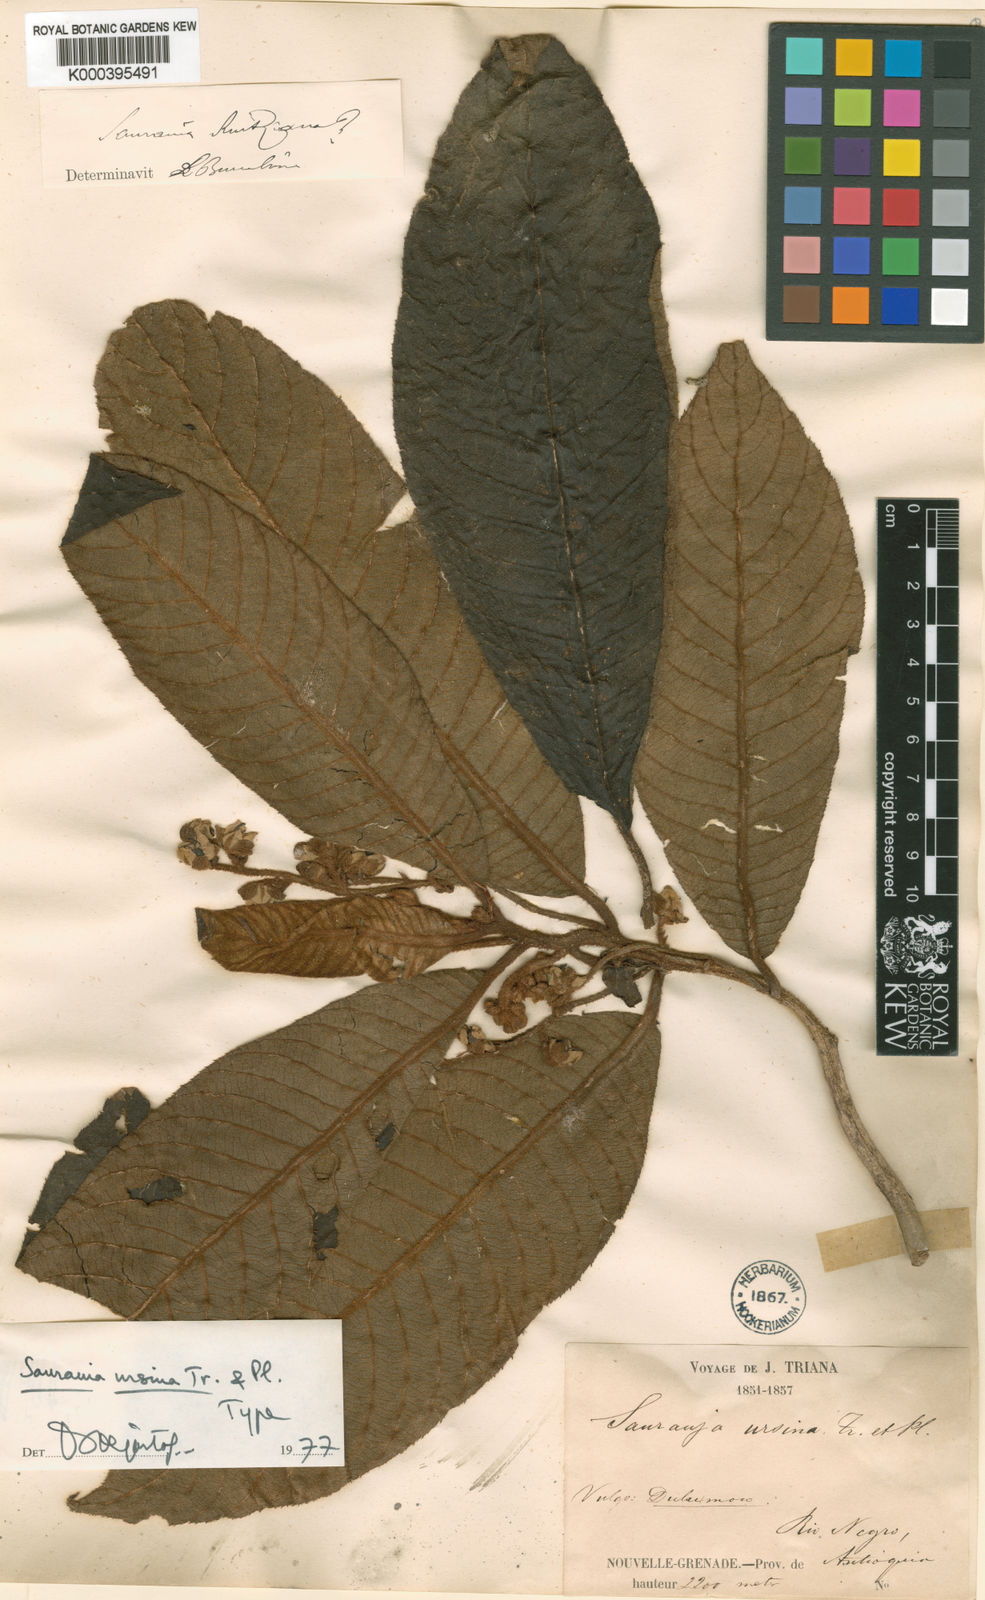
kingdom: Plantae
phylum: Tracheophyta
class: Magnoliopsida
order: Ericales
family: Actinidiaceae
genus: Saurauia
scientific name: Saurauia ursina
